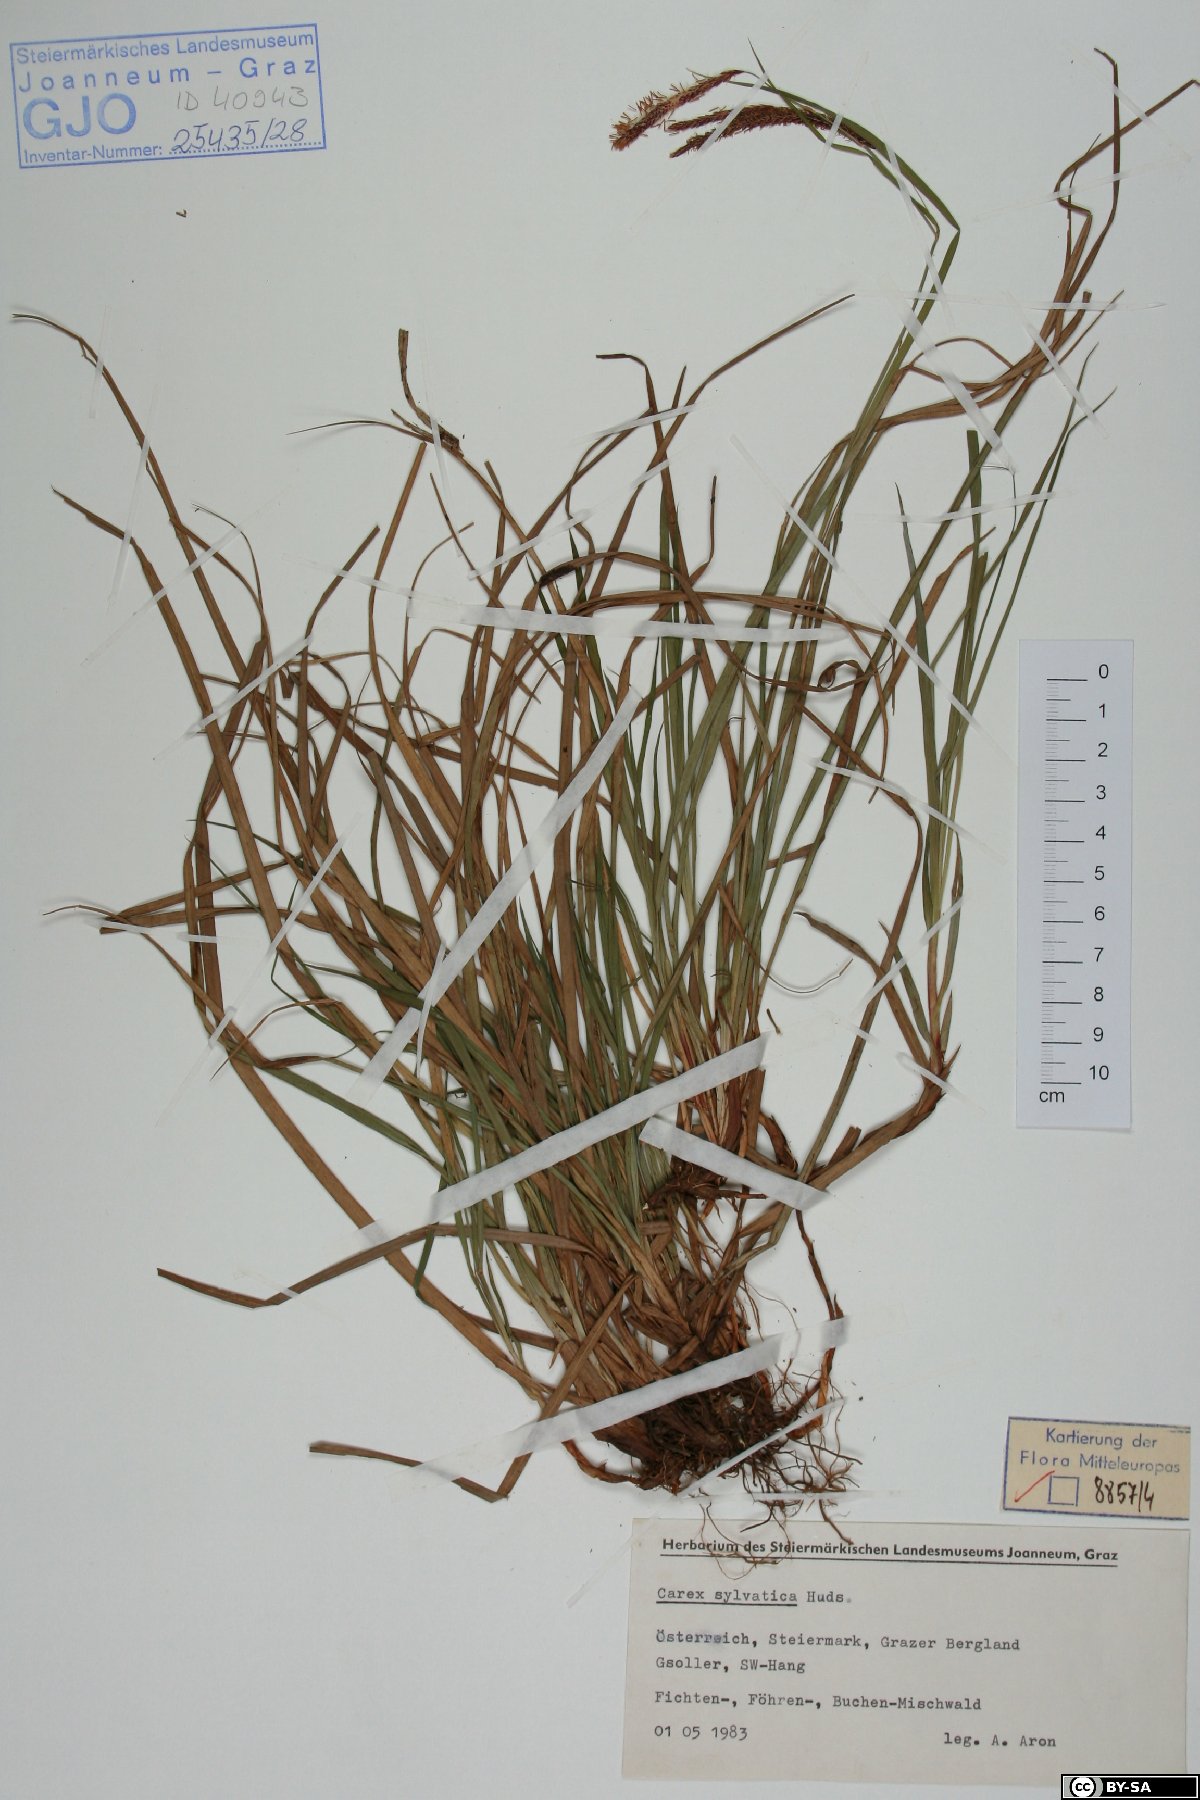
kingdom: Plantae
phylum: Tracheophyta
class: Liliopsida
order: Poales
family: Cyperaceae
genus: Carex
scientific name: Carex sylvatica
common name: Wood-sedge
